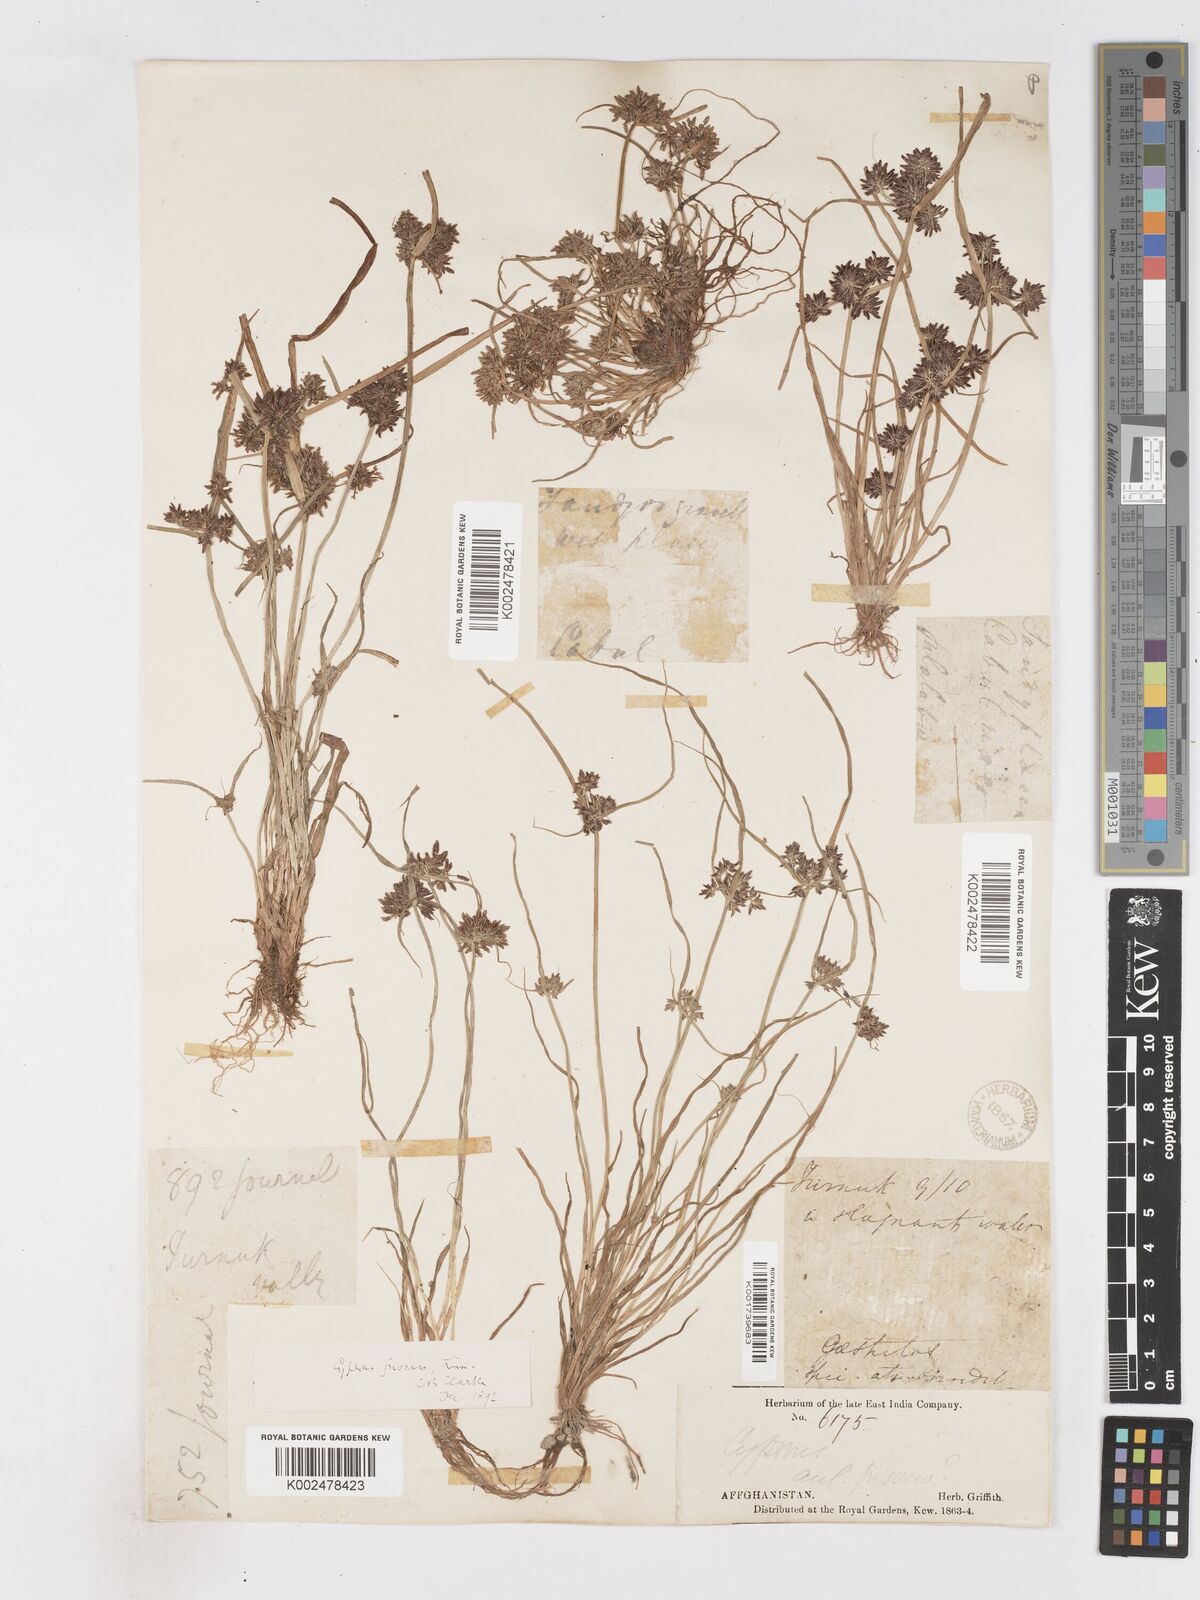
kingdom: Plantae
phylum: Tracheophyta
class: Liliopsida
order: Poales
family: Cyperaceae
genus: Cyperus
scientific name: Cyperus fuscus
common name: Brown galingale
